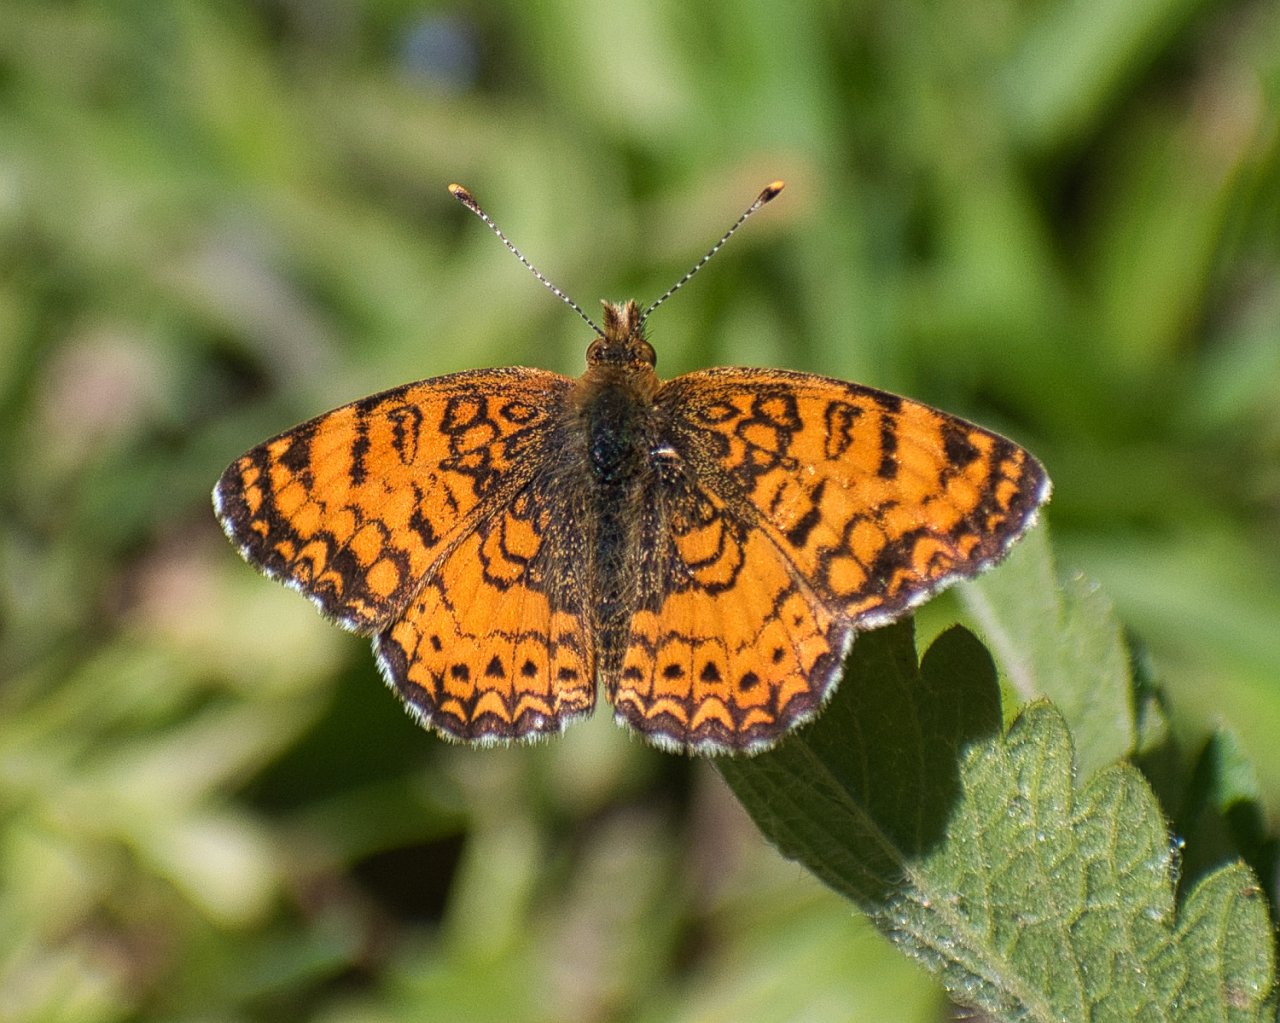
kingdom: Animalia
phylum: Arthropoda
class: Insecta
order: Lepidoptera
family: Nymphalidae
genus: Eresia
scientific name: Eresia aveyrona
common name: Mylitta Crescent
